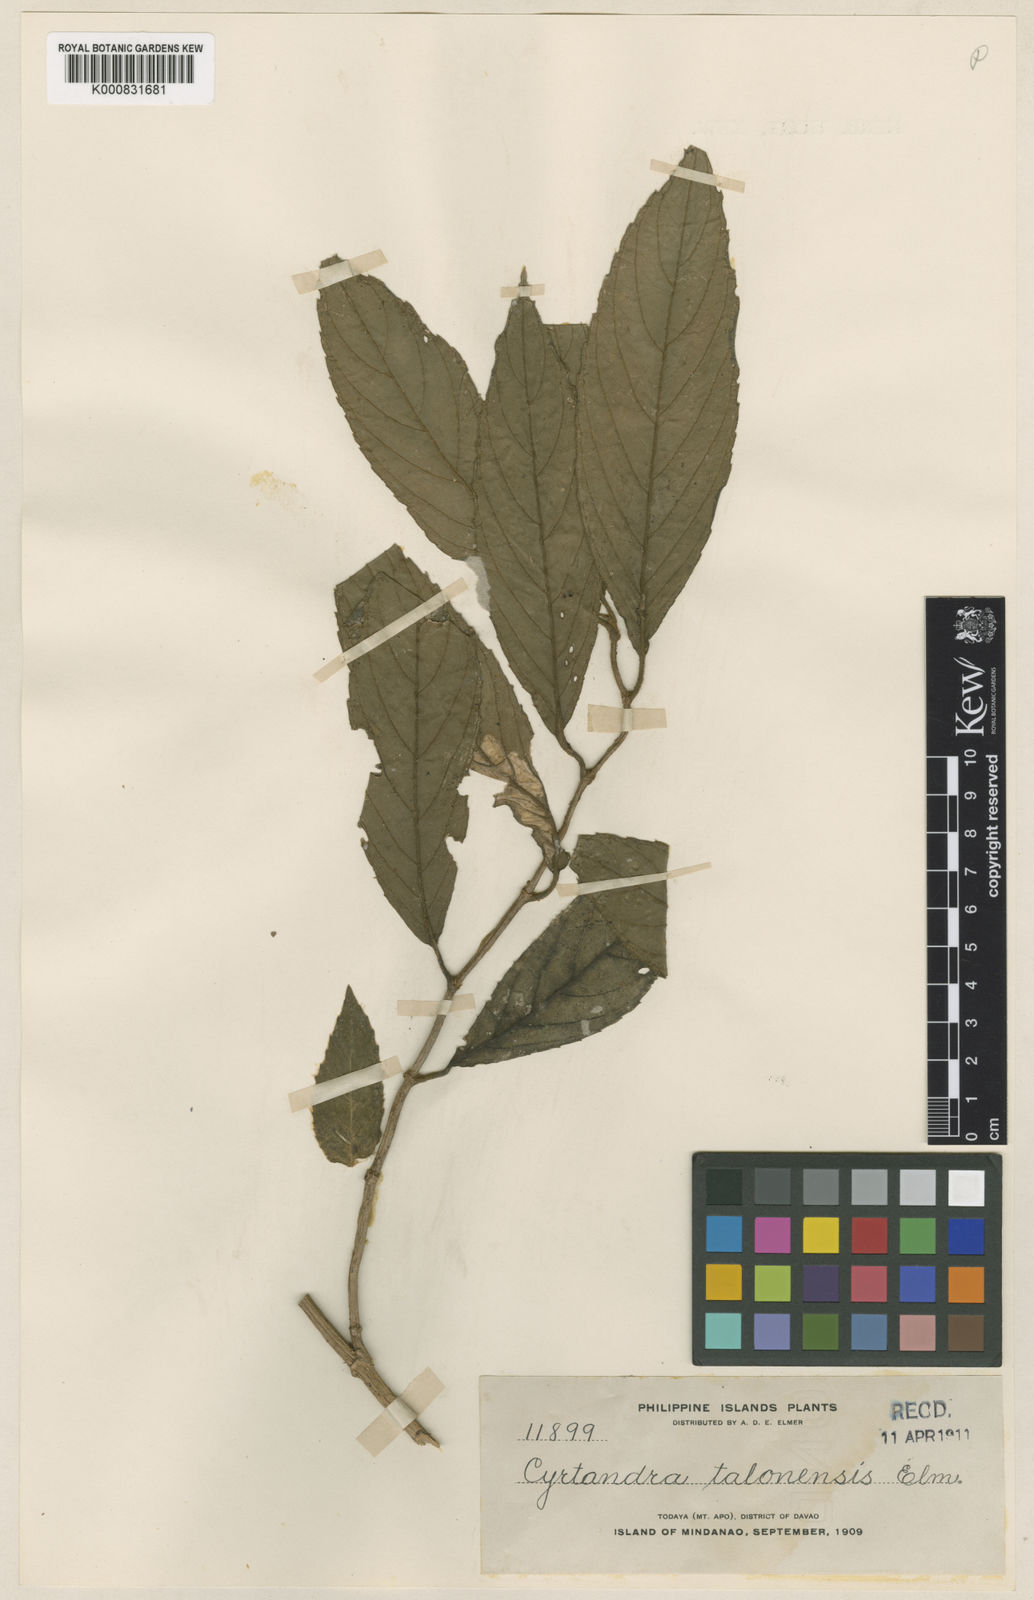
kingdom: Plantae
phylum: Tracheophyta
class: Magnoliopsida
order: Lamiales
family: Gesneriaceae
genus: Cyrtandra
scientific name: Cyrtandra tayabensis
